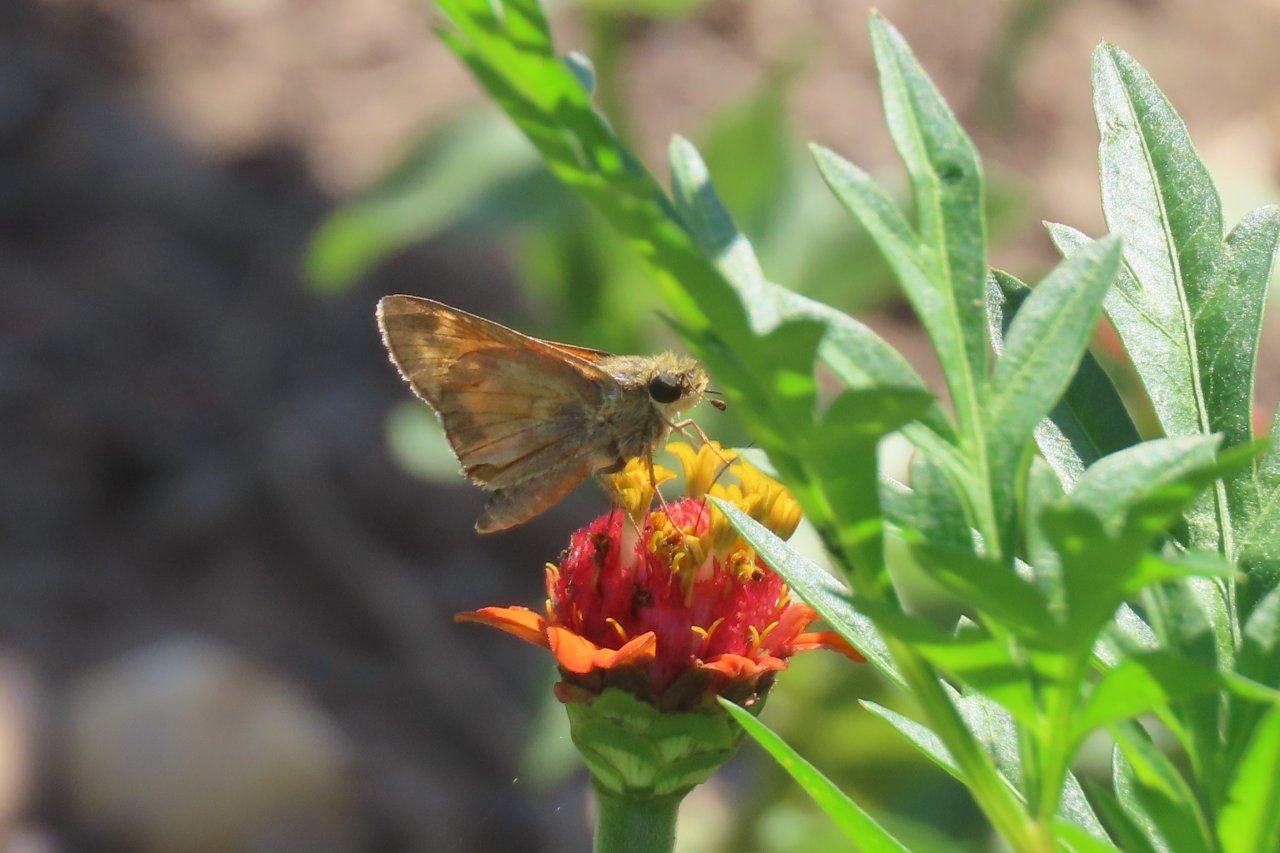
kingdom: Animalia
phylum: Arthropoda
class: Insecta
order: Lepidoptera
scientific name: Lepidoptera
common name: Butterflies
